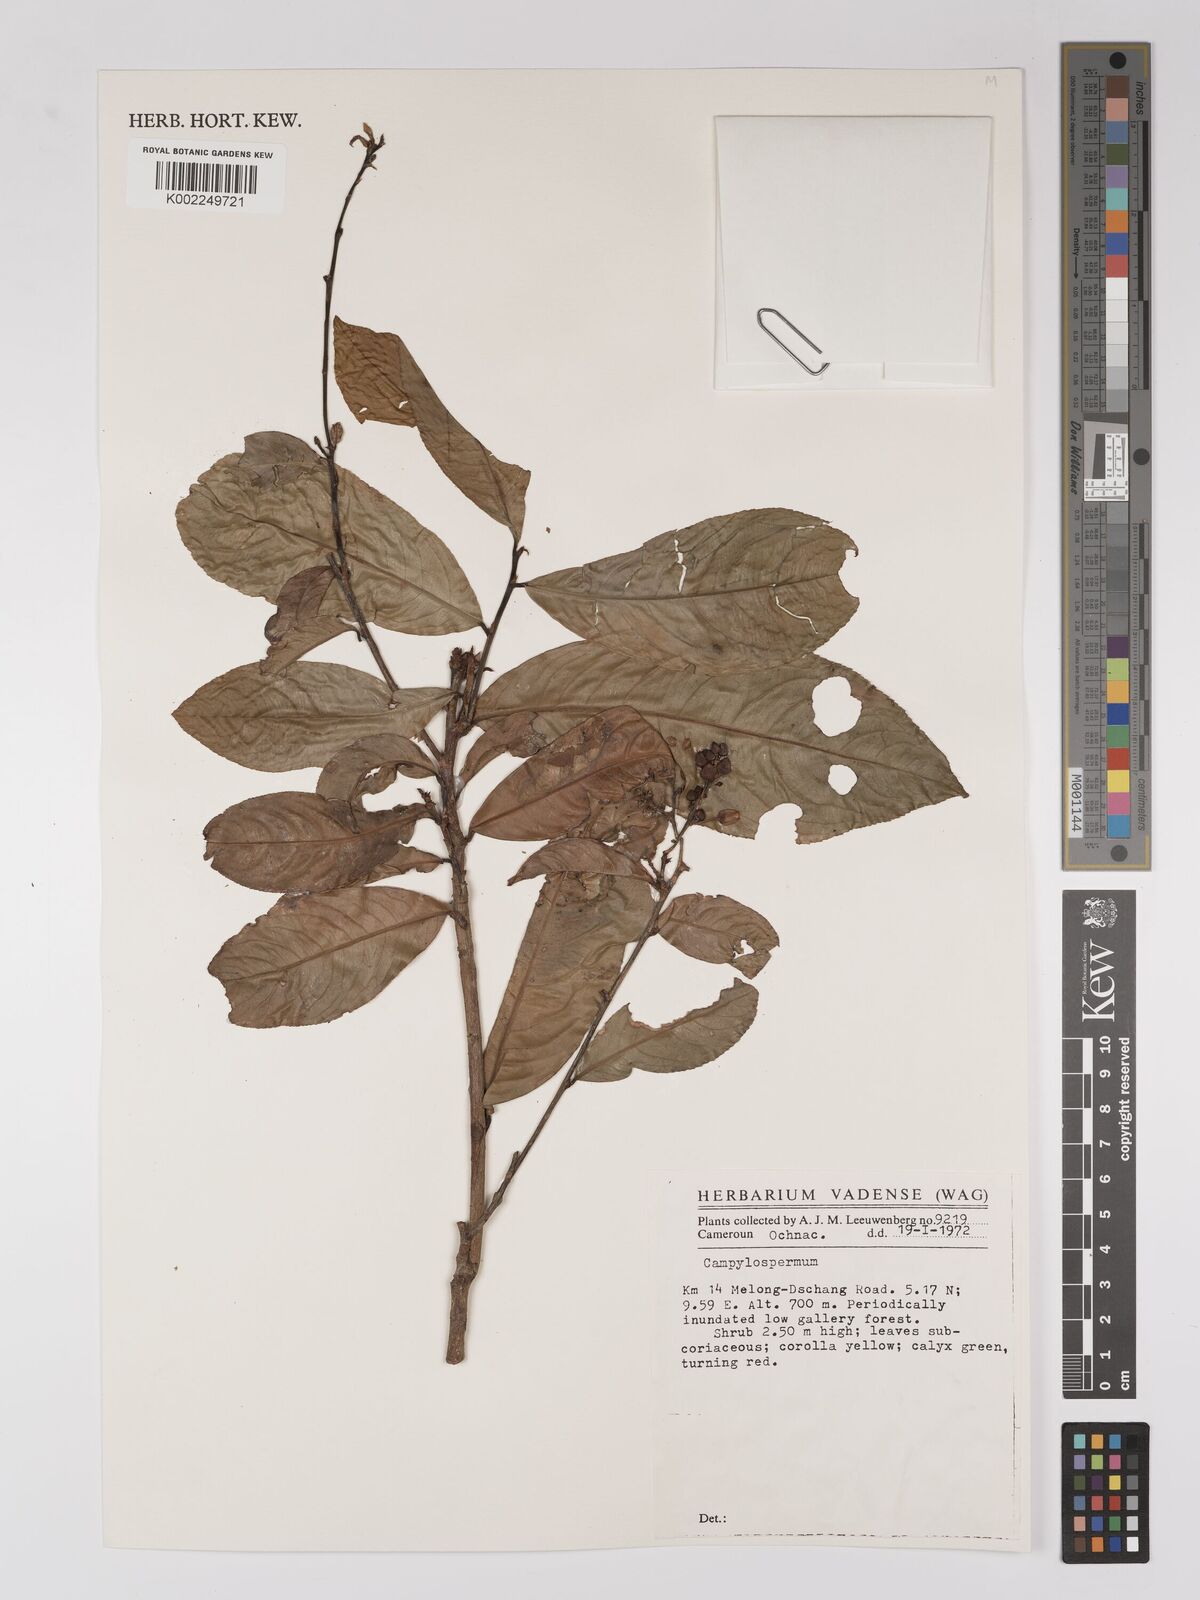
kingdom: Plantae
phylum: Tracheophyta
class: Magnoliopsida
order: Malpighiales
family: Ochnaceae
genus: Campylospermum
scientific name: Campylospermum
